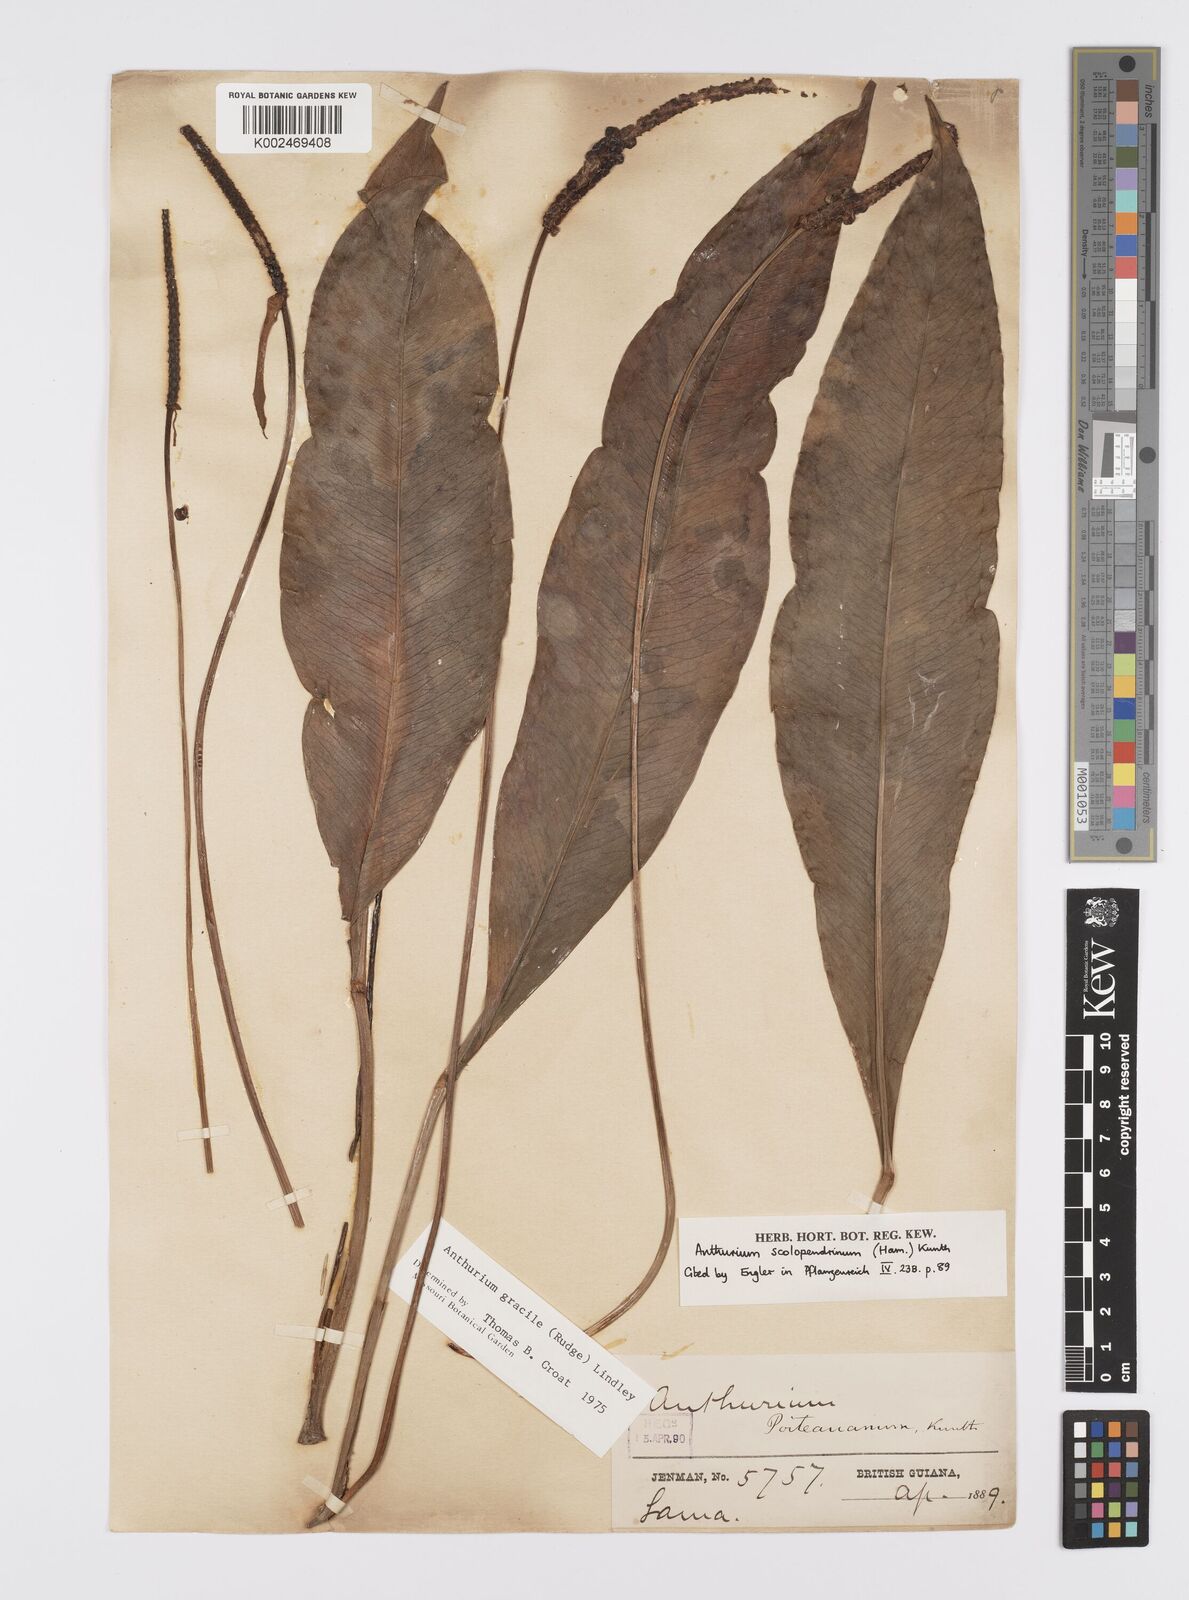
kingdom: Plantae
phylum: Tracheophyta
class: Liliopsida
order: Alismatales
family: Araceae
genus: Anthurium
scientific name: Anthurium gracile
